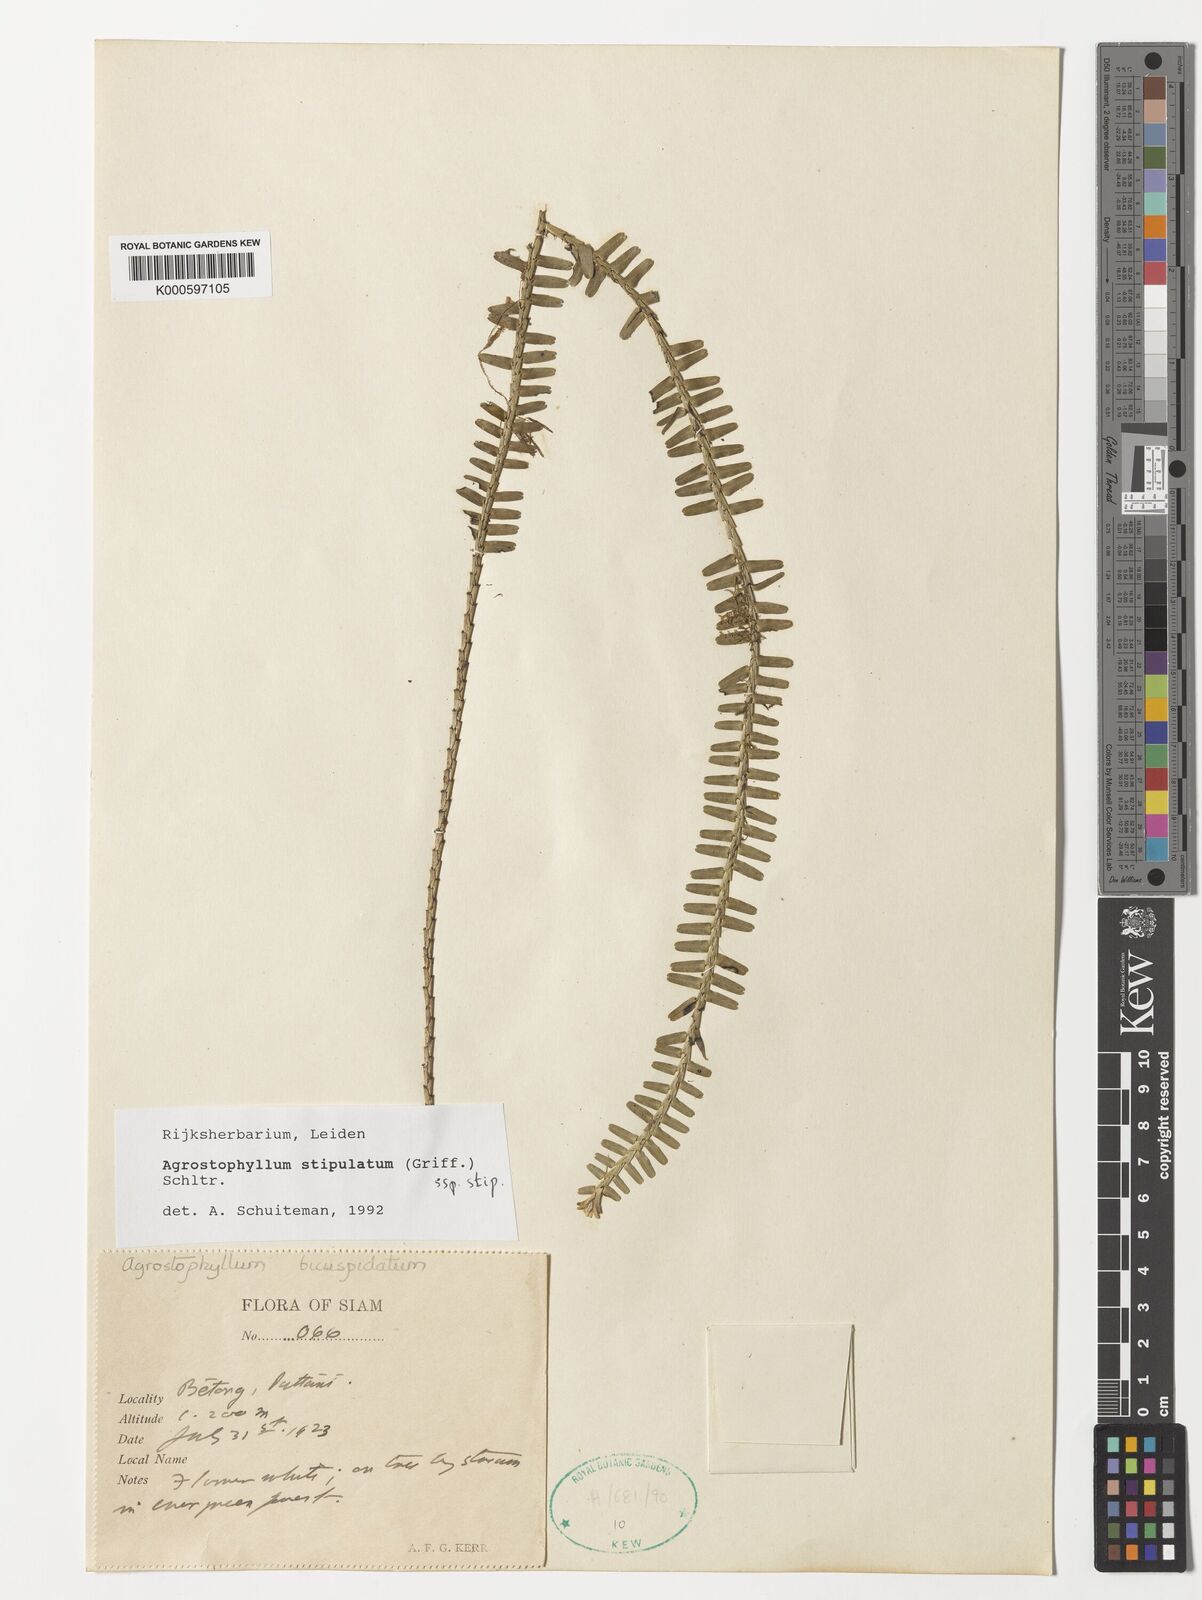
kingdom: Plantae
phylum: Tracheophyta
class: Liliopsida
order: Asparagales
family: Orchidaceae
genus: Agrostophyllum
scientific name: Agrostophyllum stipulatum
